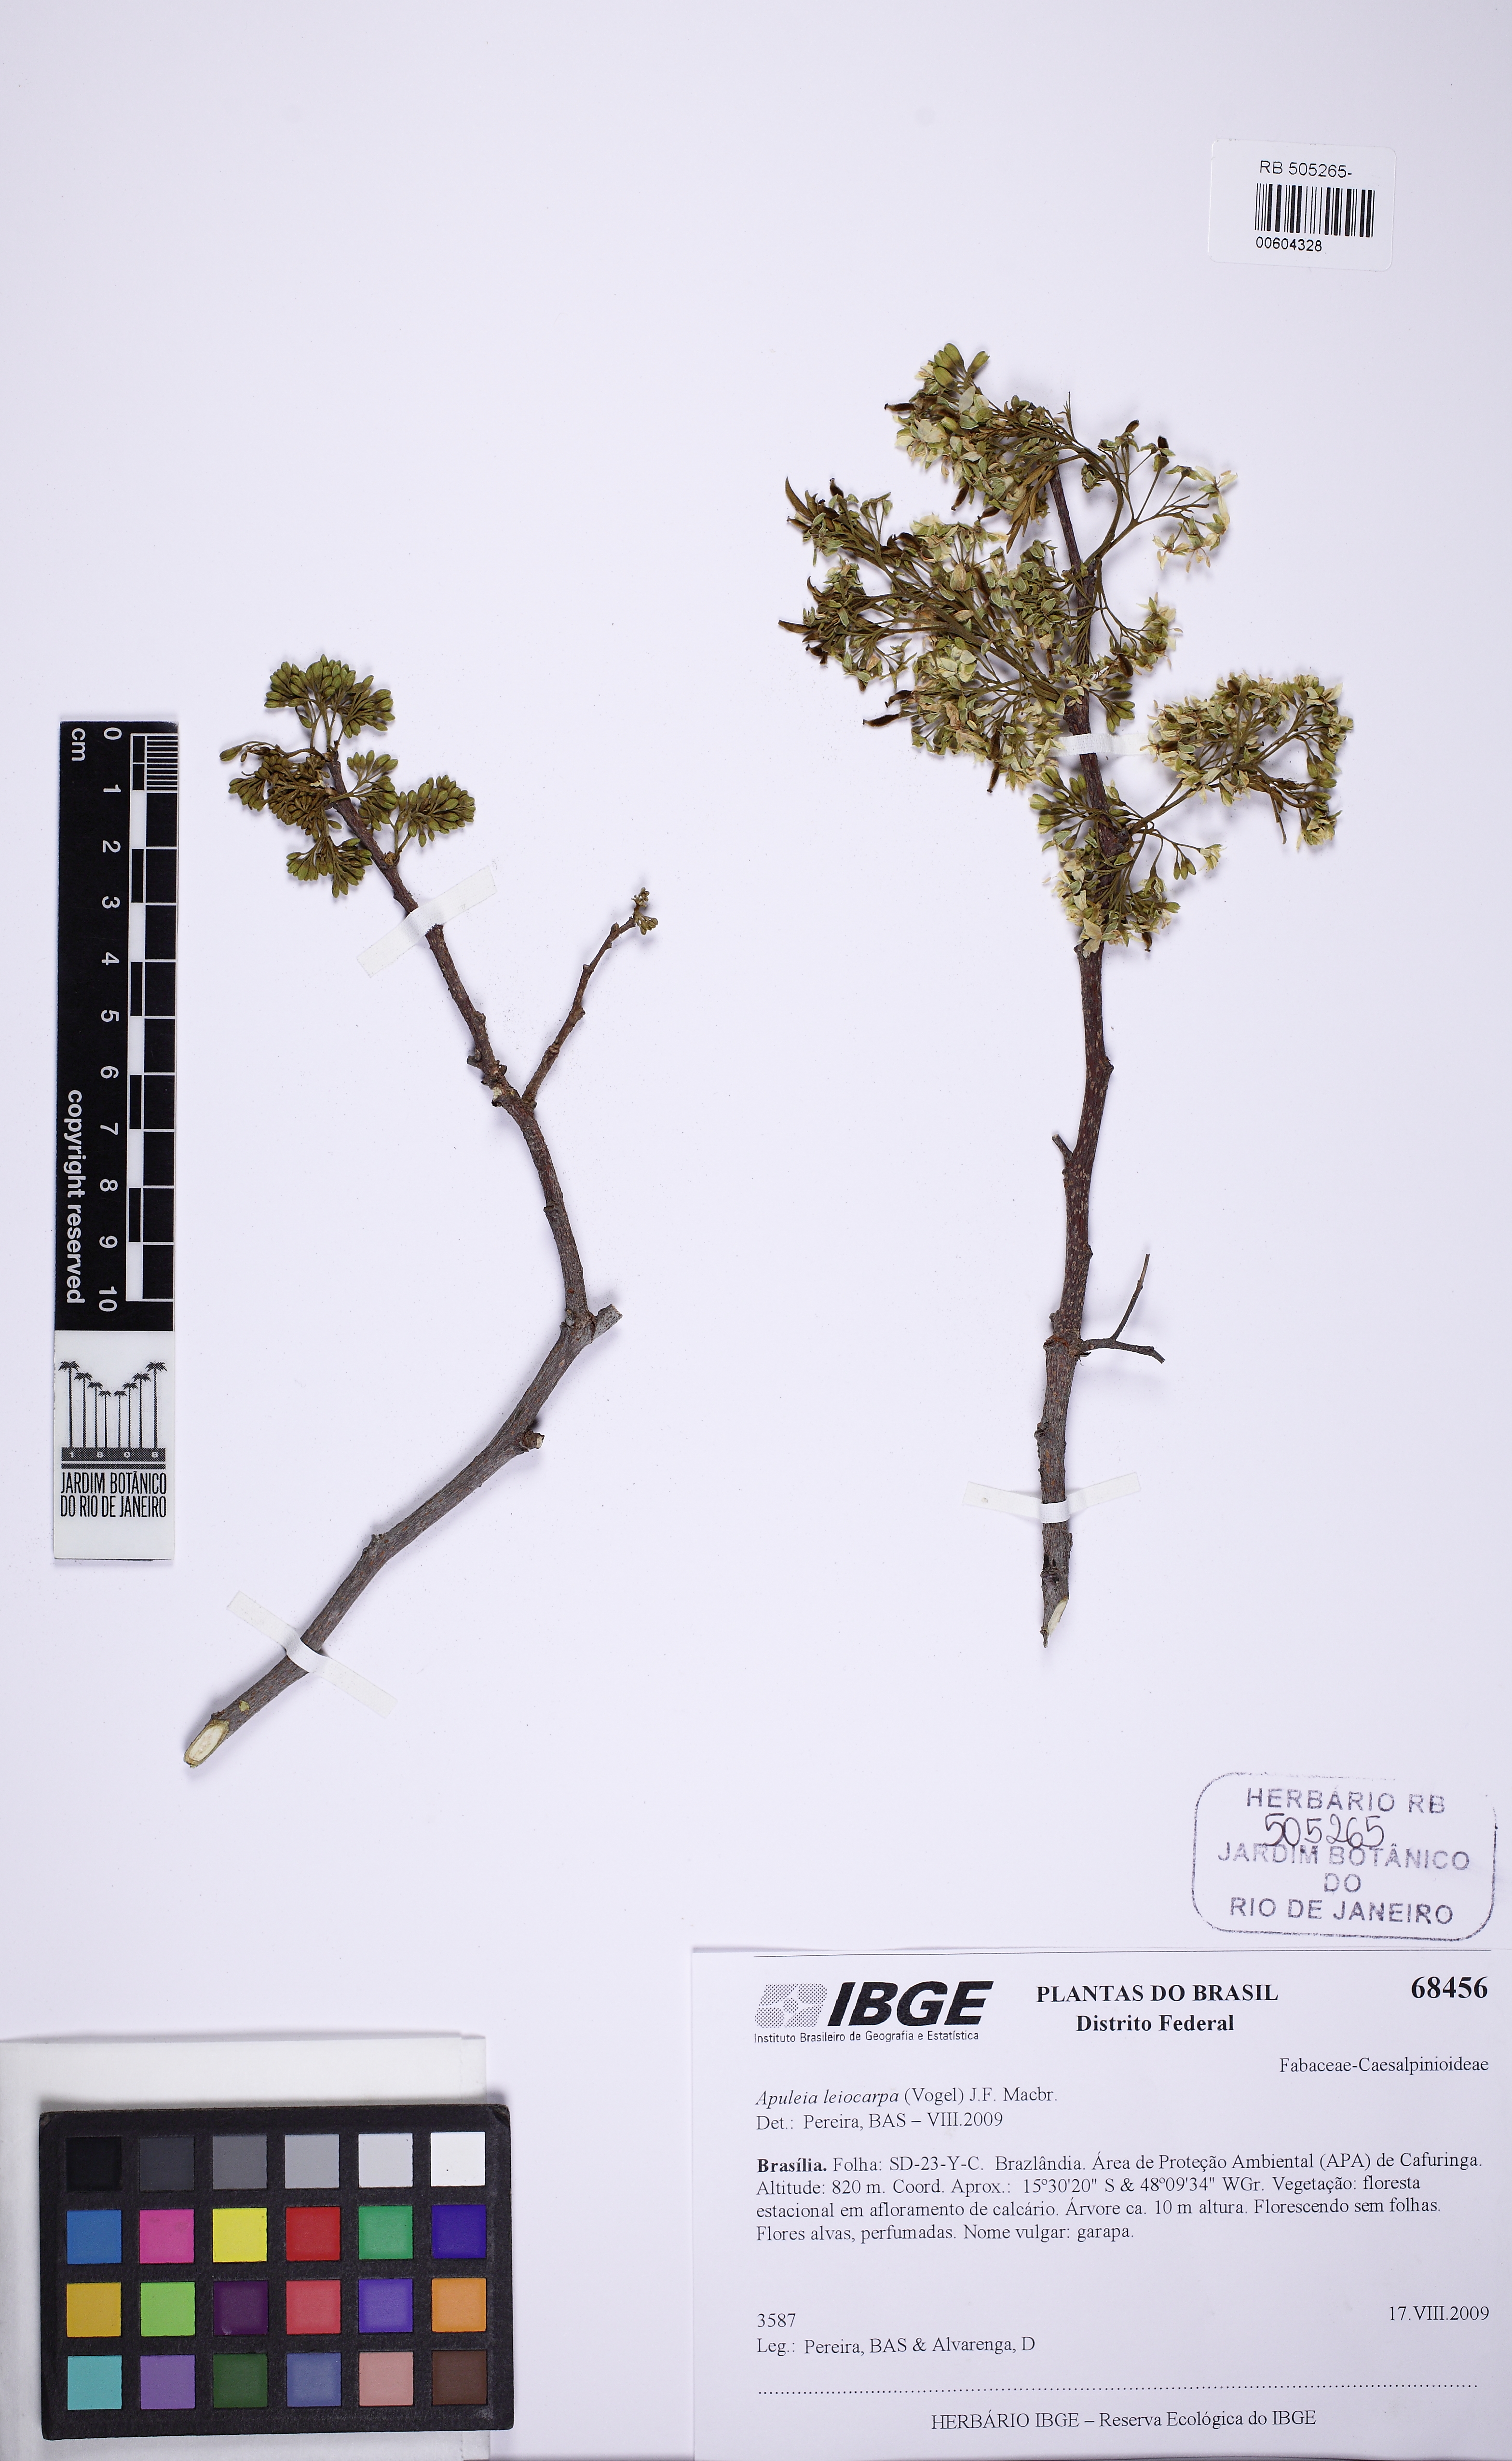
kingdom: Plantae
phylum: Tracheophyta
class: Magnoliopsida
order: Fabales
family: Fabaceae
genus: Apuleia
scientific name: Apuleia leiocarpa
